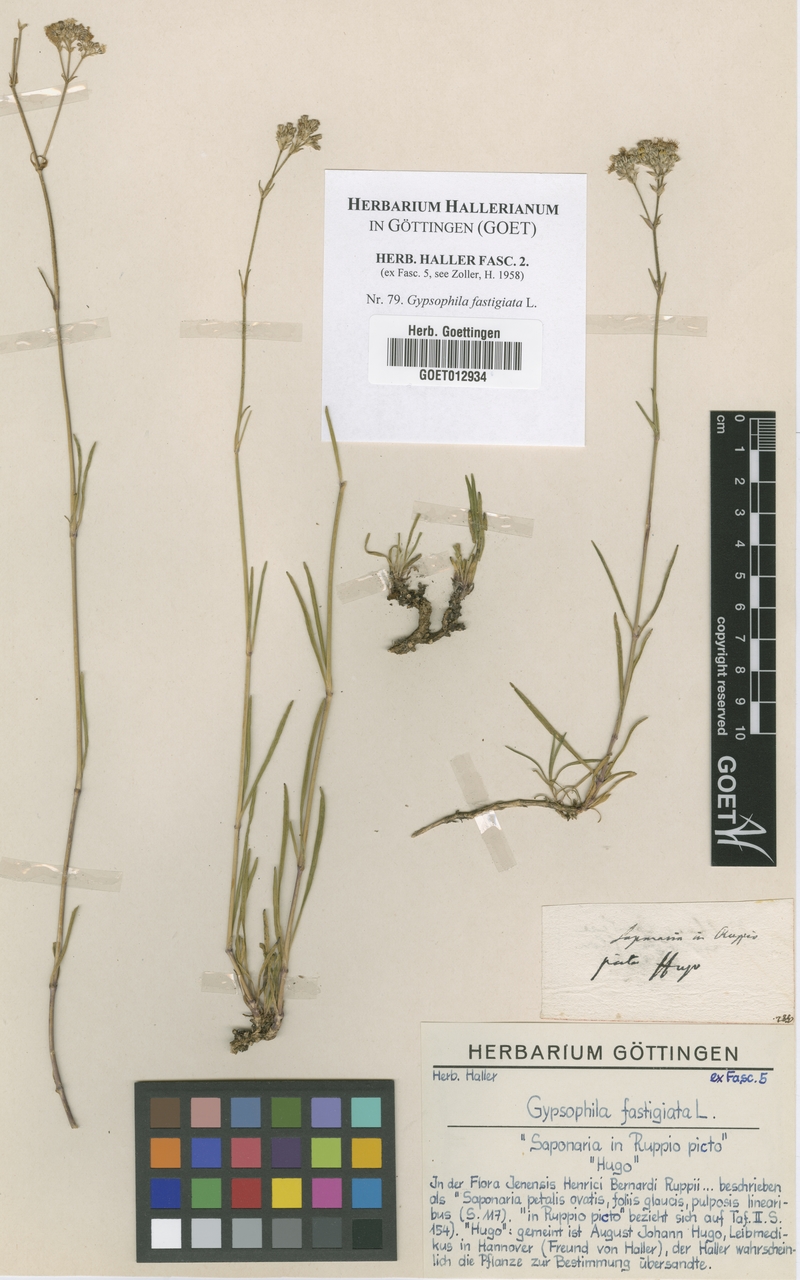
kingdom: Plantae
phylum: Tracheophyta
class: Magnoliopsida
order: Caryophyllales
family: Caryophyllaceae
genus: Gypsophila
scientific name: Gypsophila fastigiata
